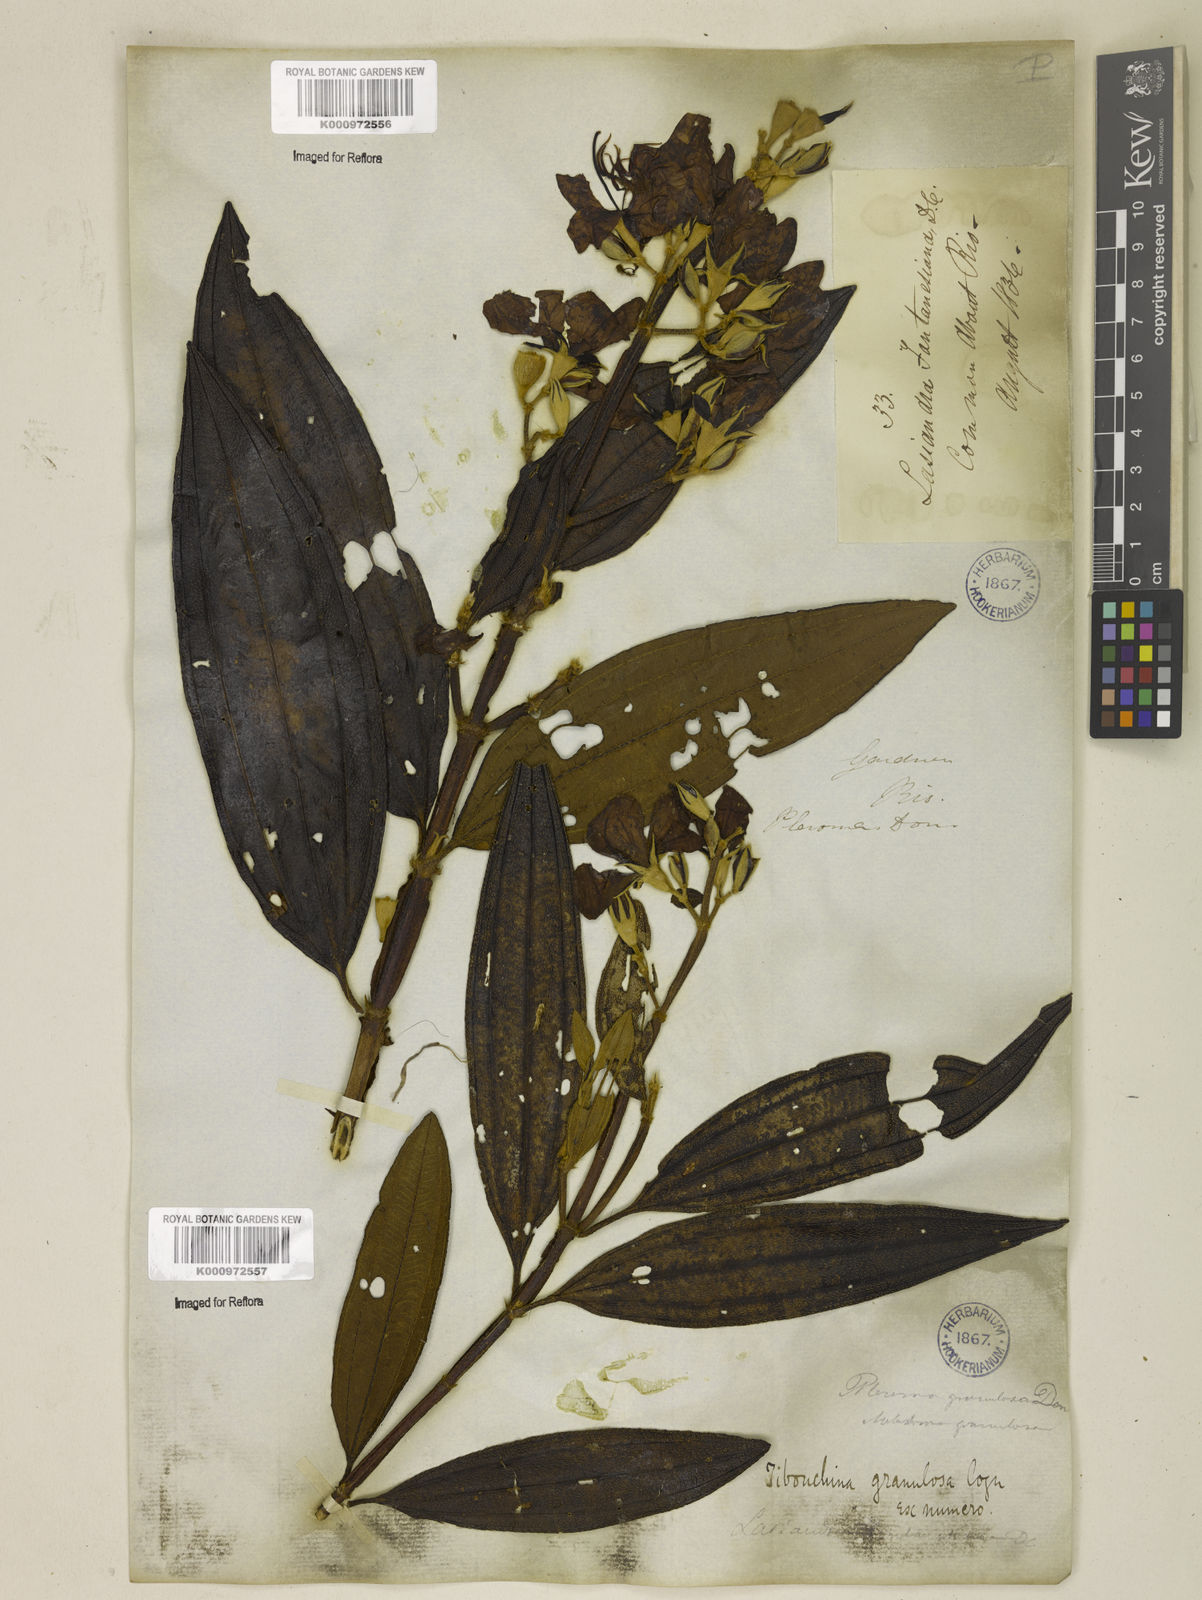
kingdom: Plantae
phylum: Tracheophyta
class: Magnoliopsida
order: Myrtales
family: Melastomataceae
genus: Pleroma
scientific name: Pleroma granulosum
